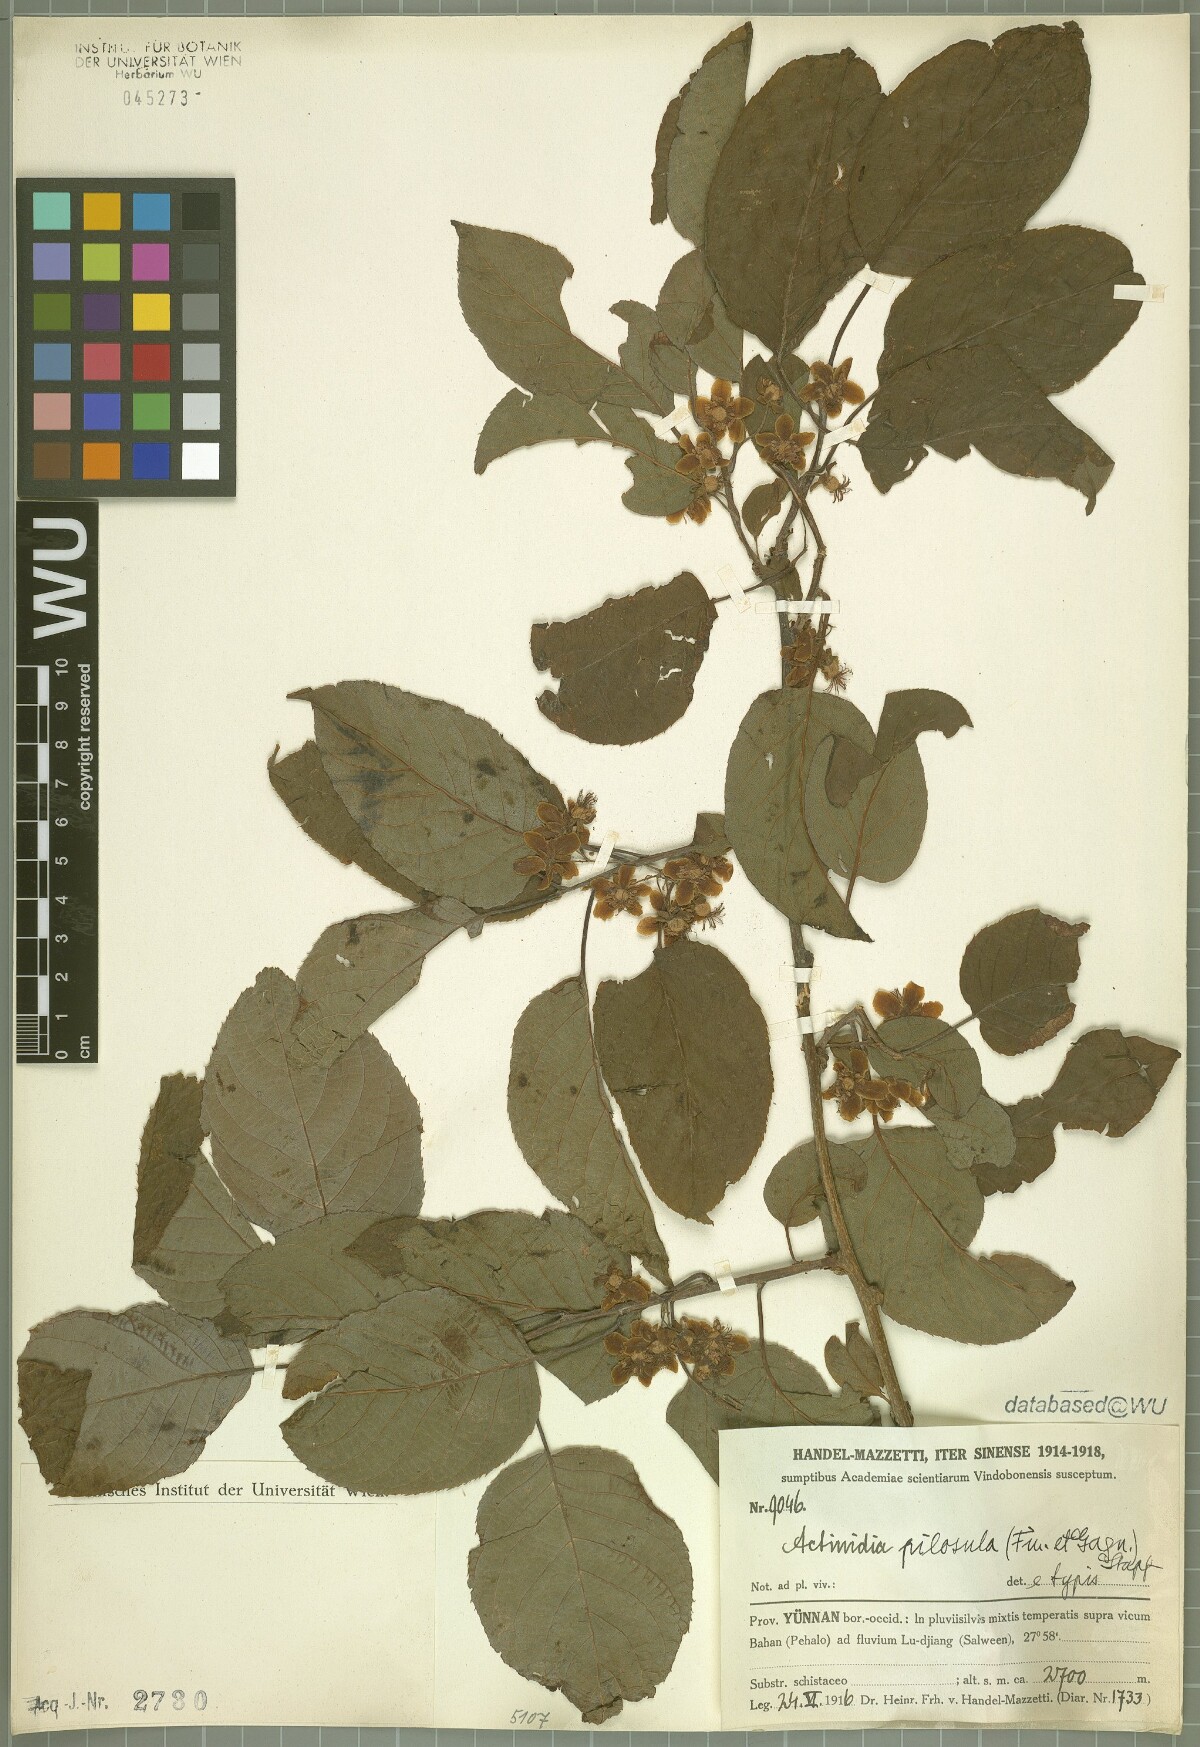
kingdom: Plantae
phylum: Tracheophyta
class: Magnoliopsida
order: Ericales
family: Actinidiaceae
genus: Actinidia
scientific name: Actinidia pilosula
